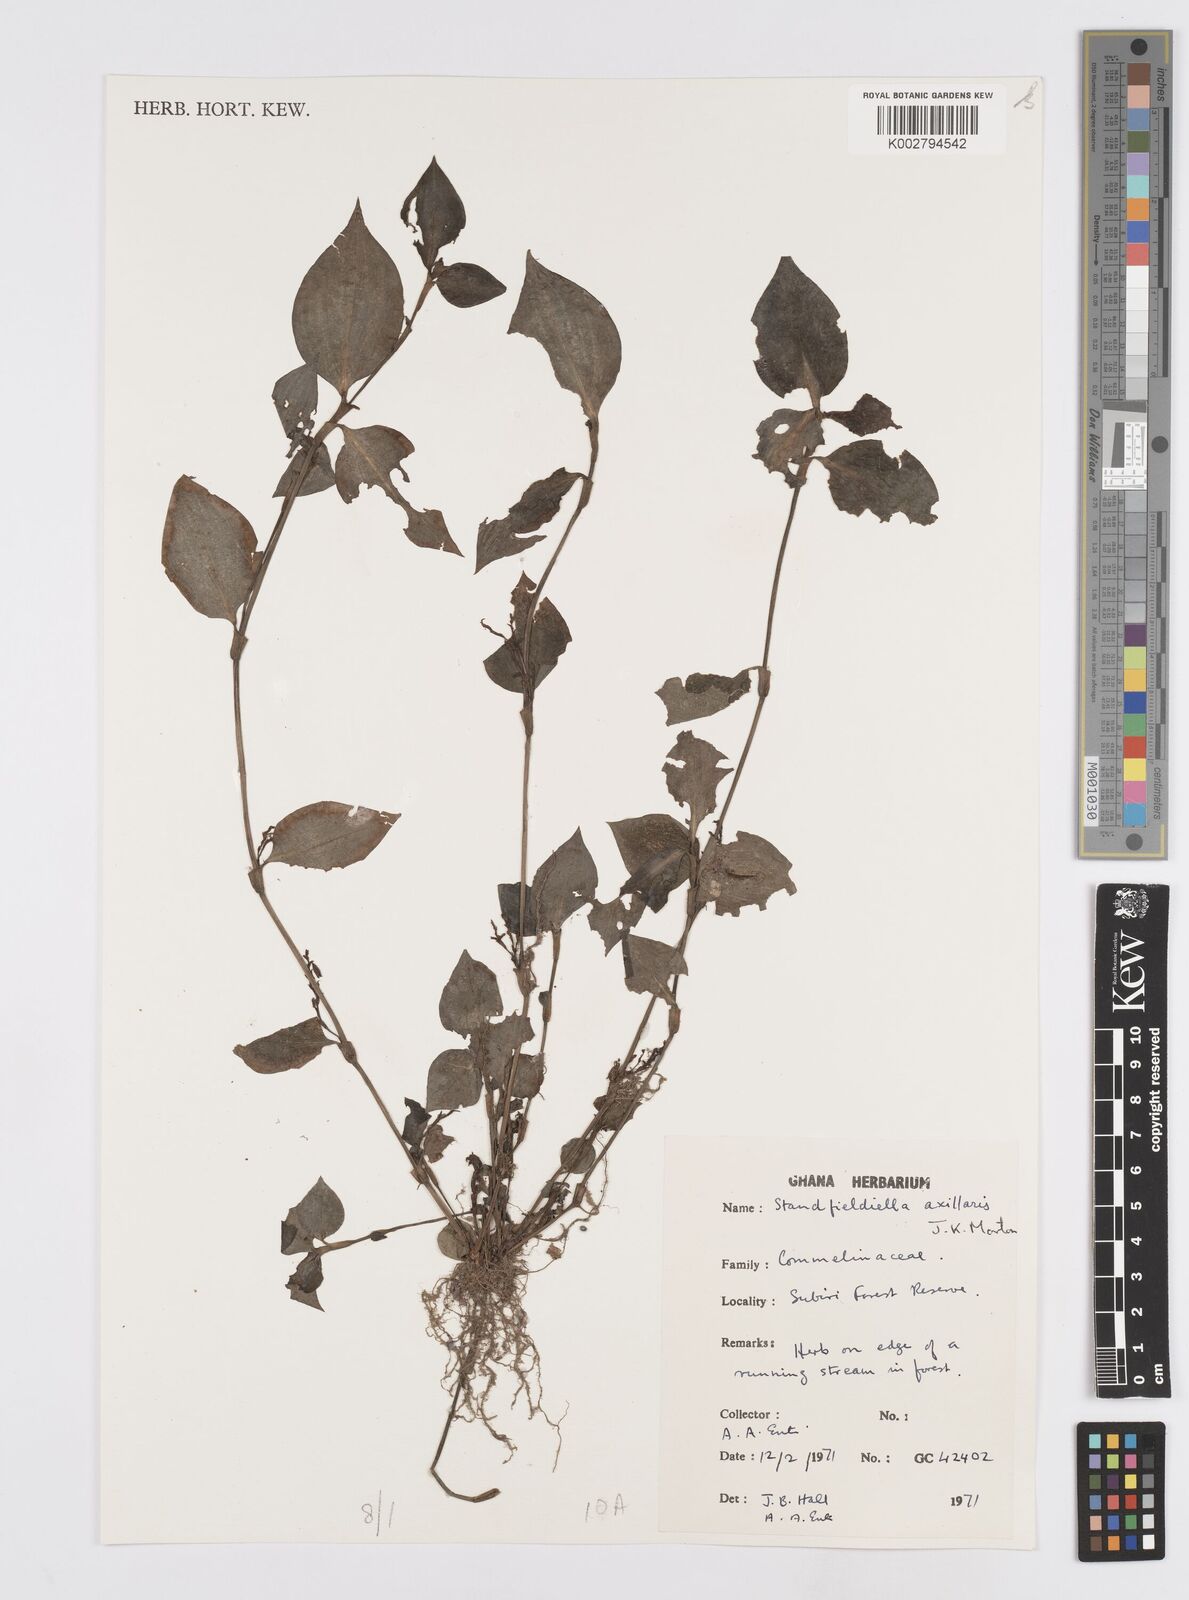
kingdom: Plantae
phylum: Tracheophyta
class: Liliopsida
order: Commelinales
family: Commelinaceae
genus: Stanfieldiella
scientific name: Stanfieldiella axillaris
